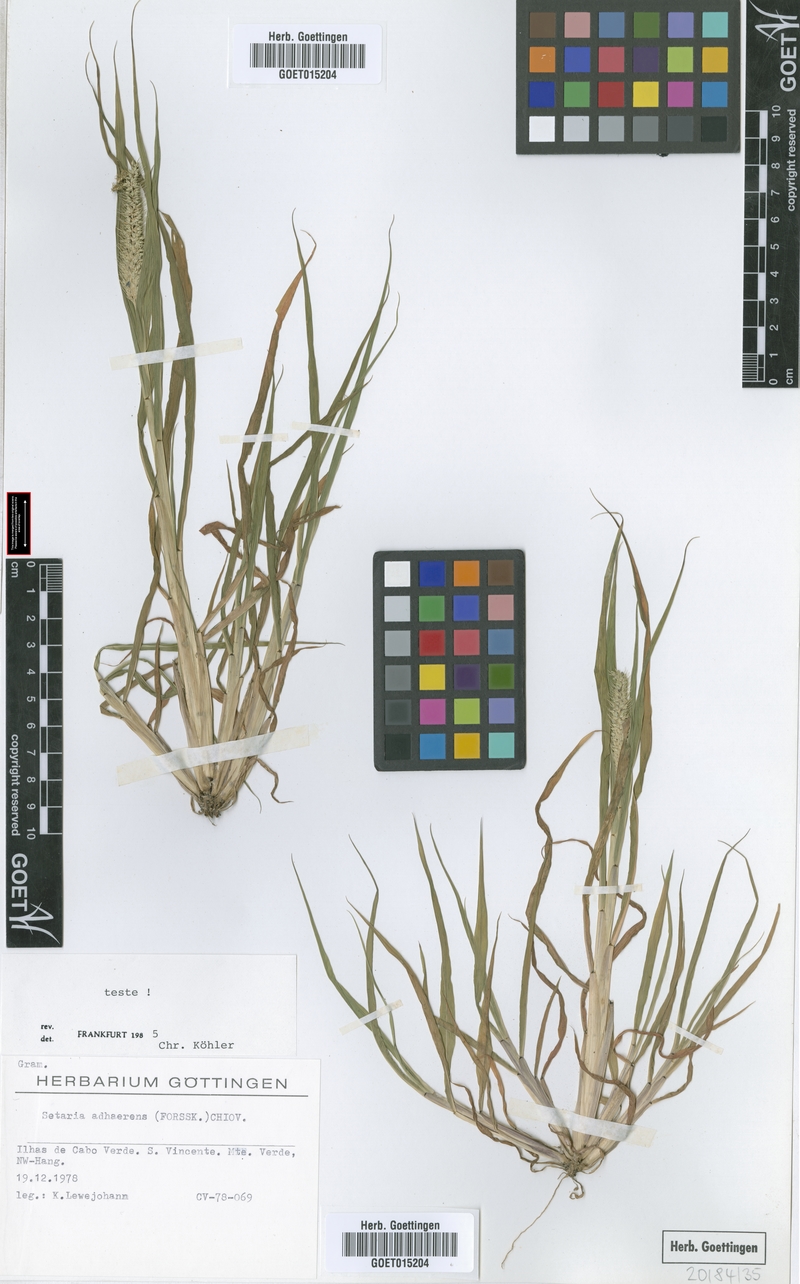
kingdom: Plantae
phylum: Tracheophyta
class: Liliopsida
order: Poales
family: Poaceae
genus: Setaria
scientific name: Setaria adhaerens
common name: Adherent bristle-grass
